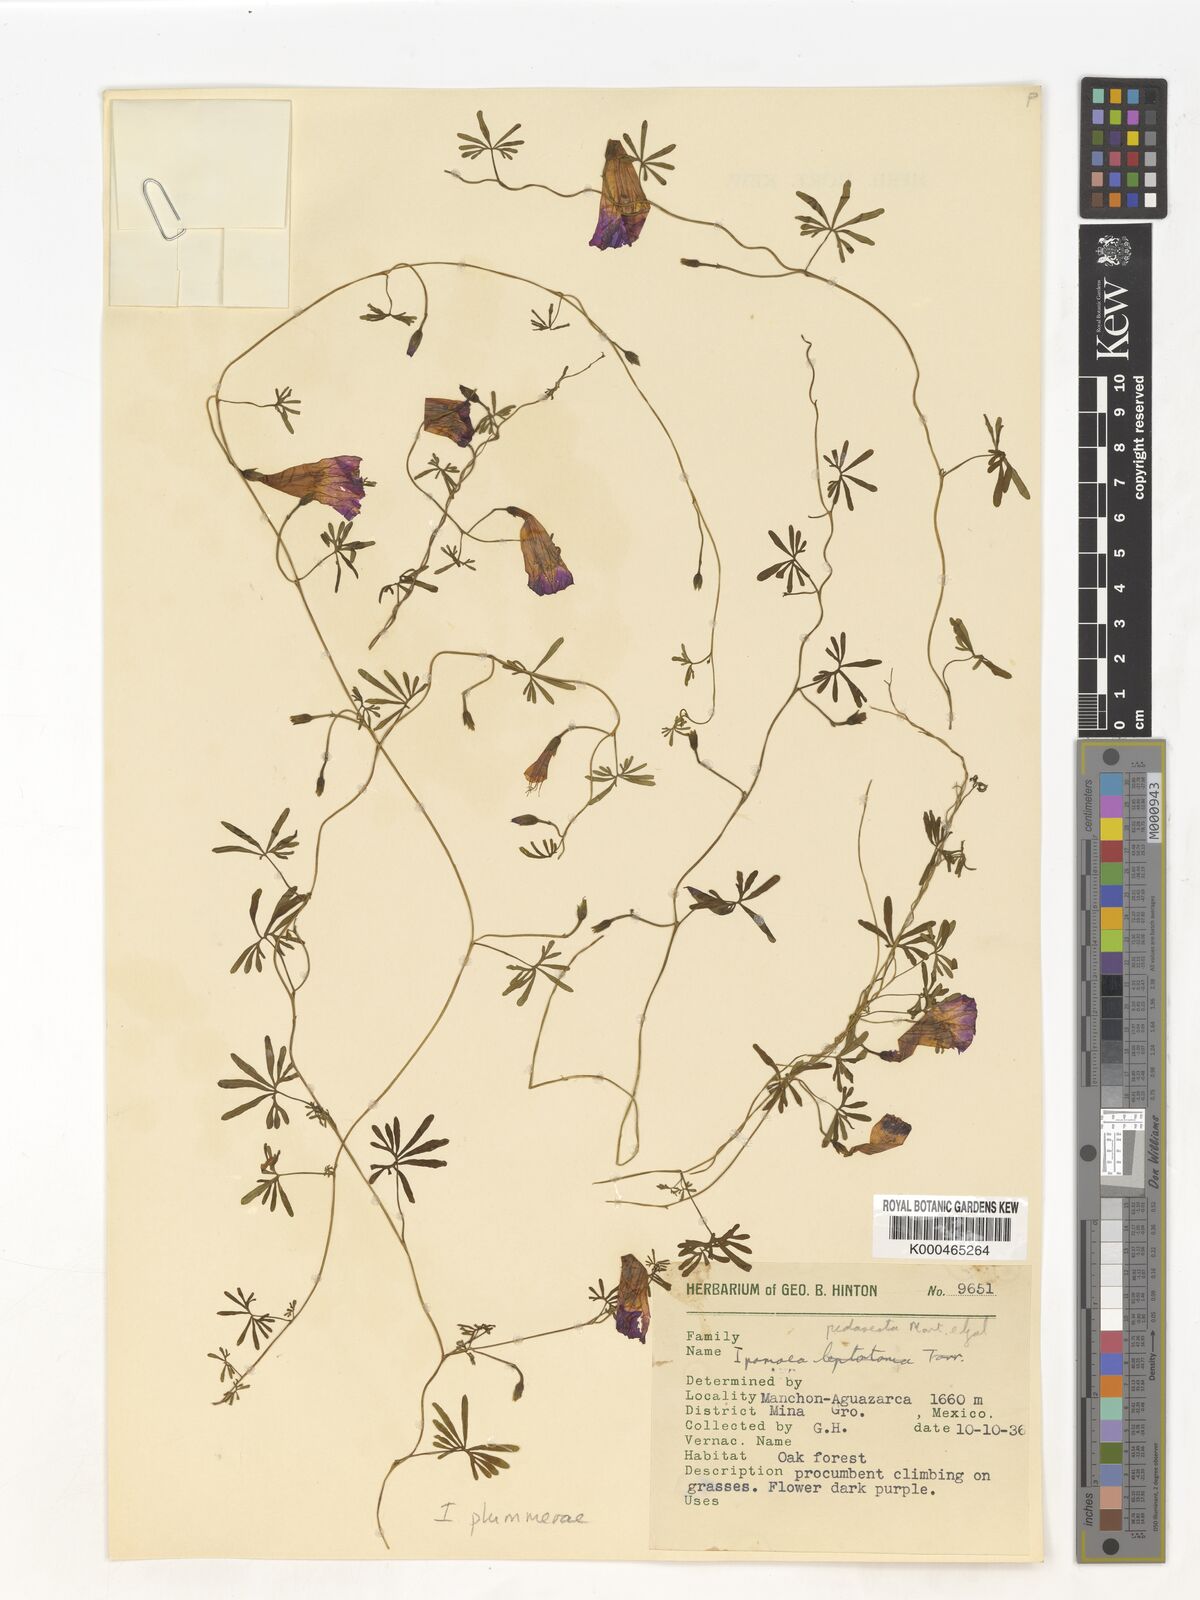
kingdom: Plantae
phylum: Tracheophyta
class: Magnoliopsida
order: Solanales
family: Convolvulaceae
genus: Ipomoea
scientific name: Ipomoea plummerae
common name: Plummer's morning-glory
